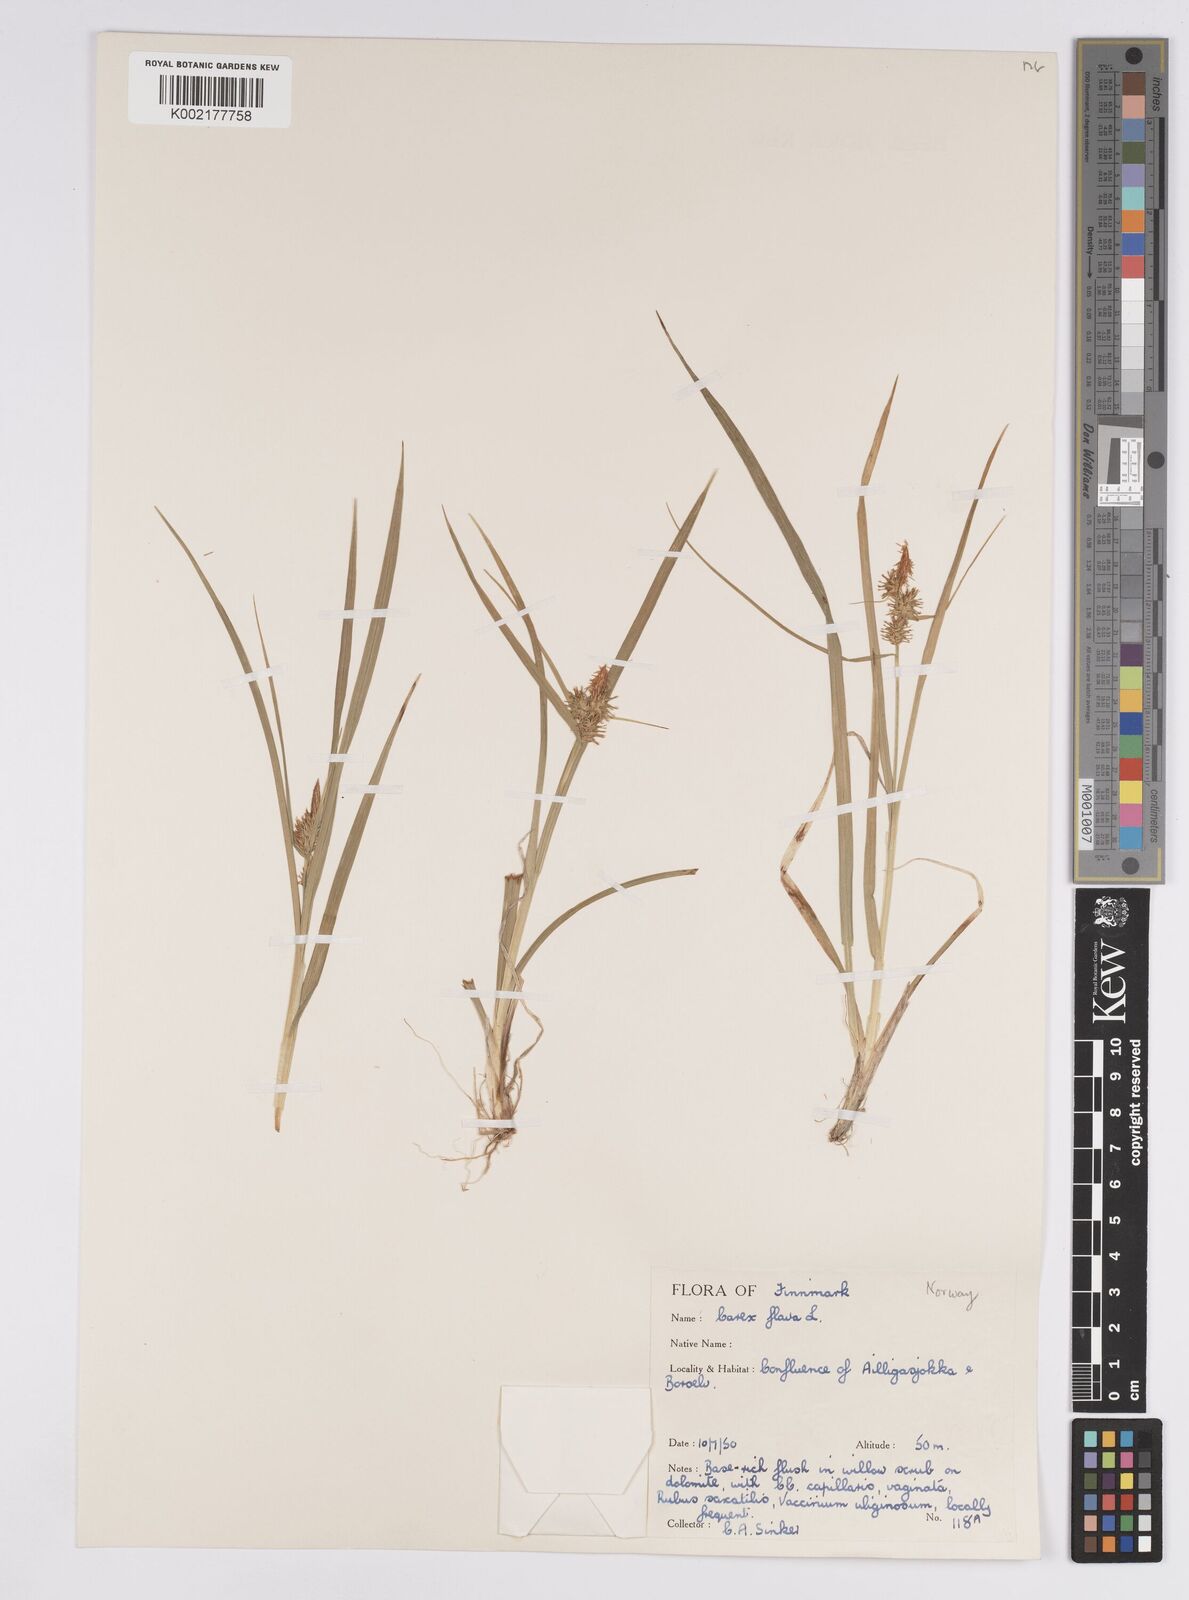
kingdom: Plantae
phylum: Tracheophyta
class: Liliopsida
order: Poales
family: Cyperaceae
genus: Carex
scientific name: Carex flava
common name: Large yellow-sedge
